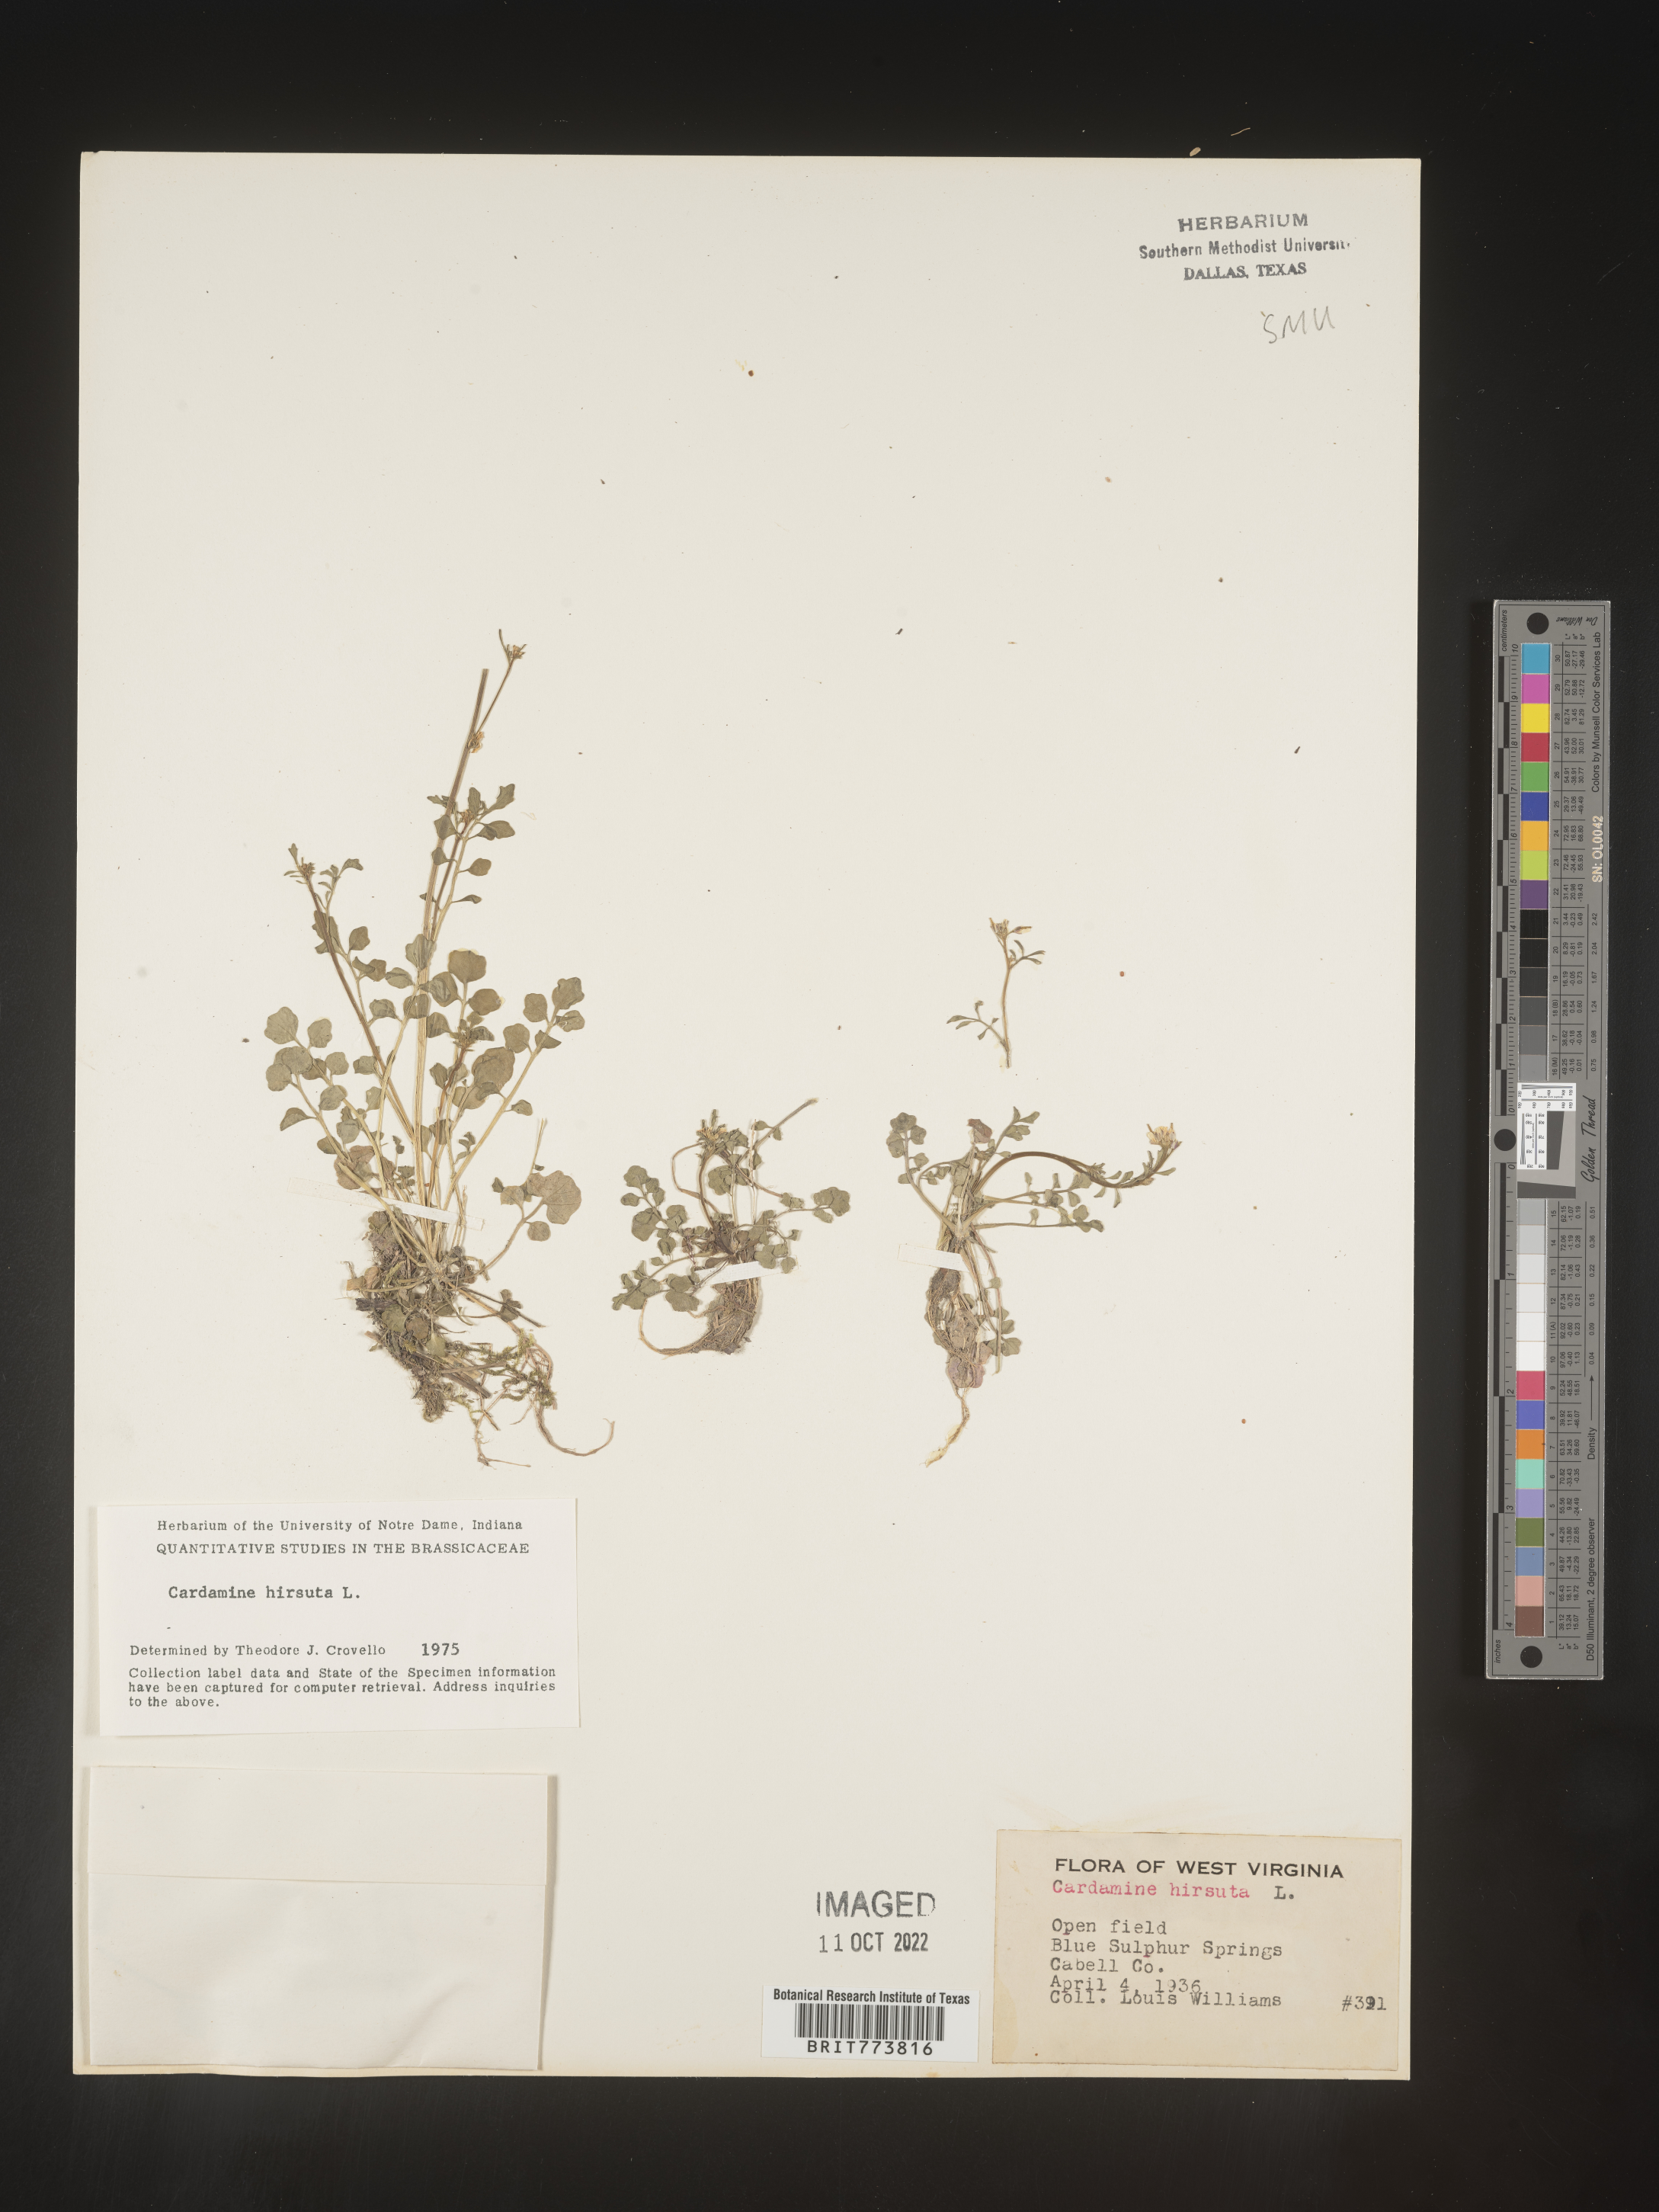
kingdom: Plantae
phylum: Tracheophyta
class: Magnoliopsida
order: Brassicales
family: Brassicaceae
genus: Cardamine
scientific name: Cardamine hirsuta
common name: Hairy bittercress
